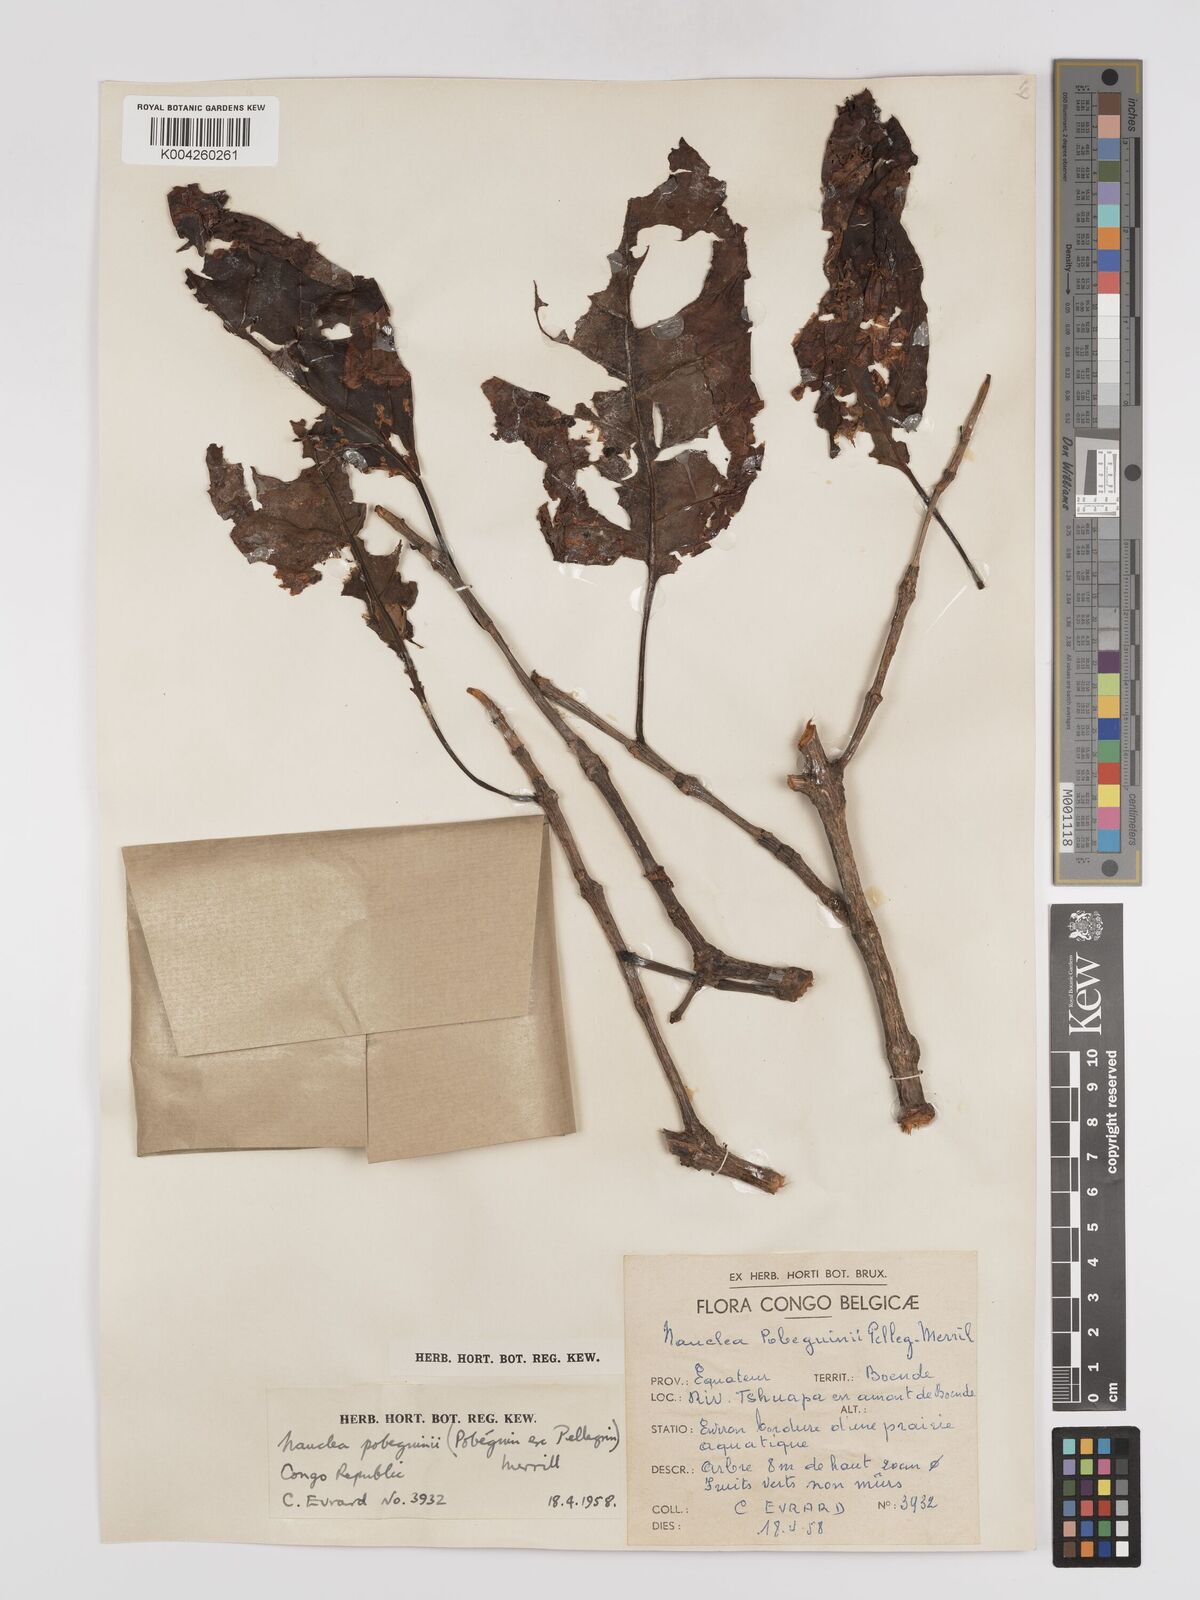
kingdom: Plantae
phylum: Tracheophyta
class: Magnoliopsida
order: Gentianales
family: Rubiaceae
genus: Nauclea
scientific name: Nauclea pobeguinii
